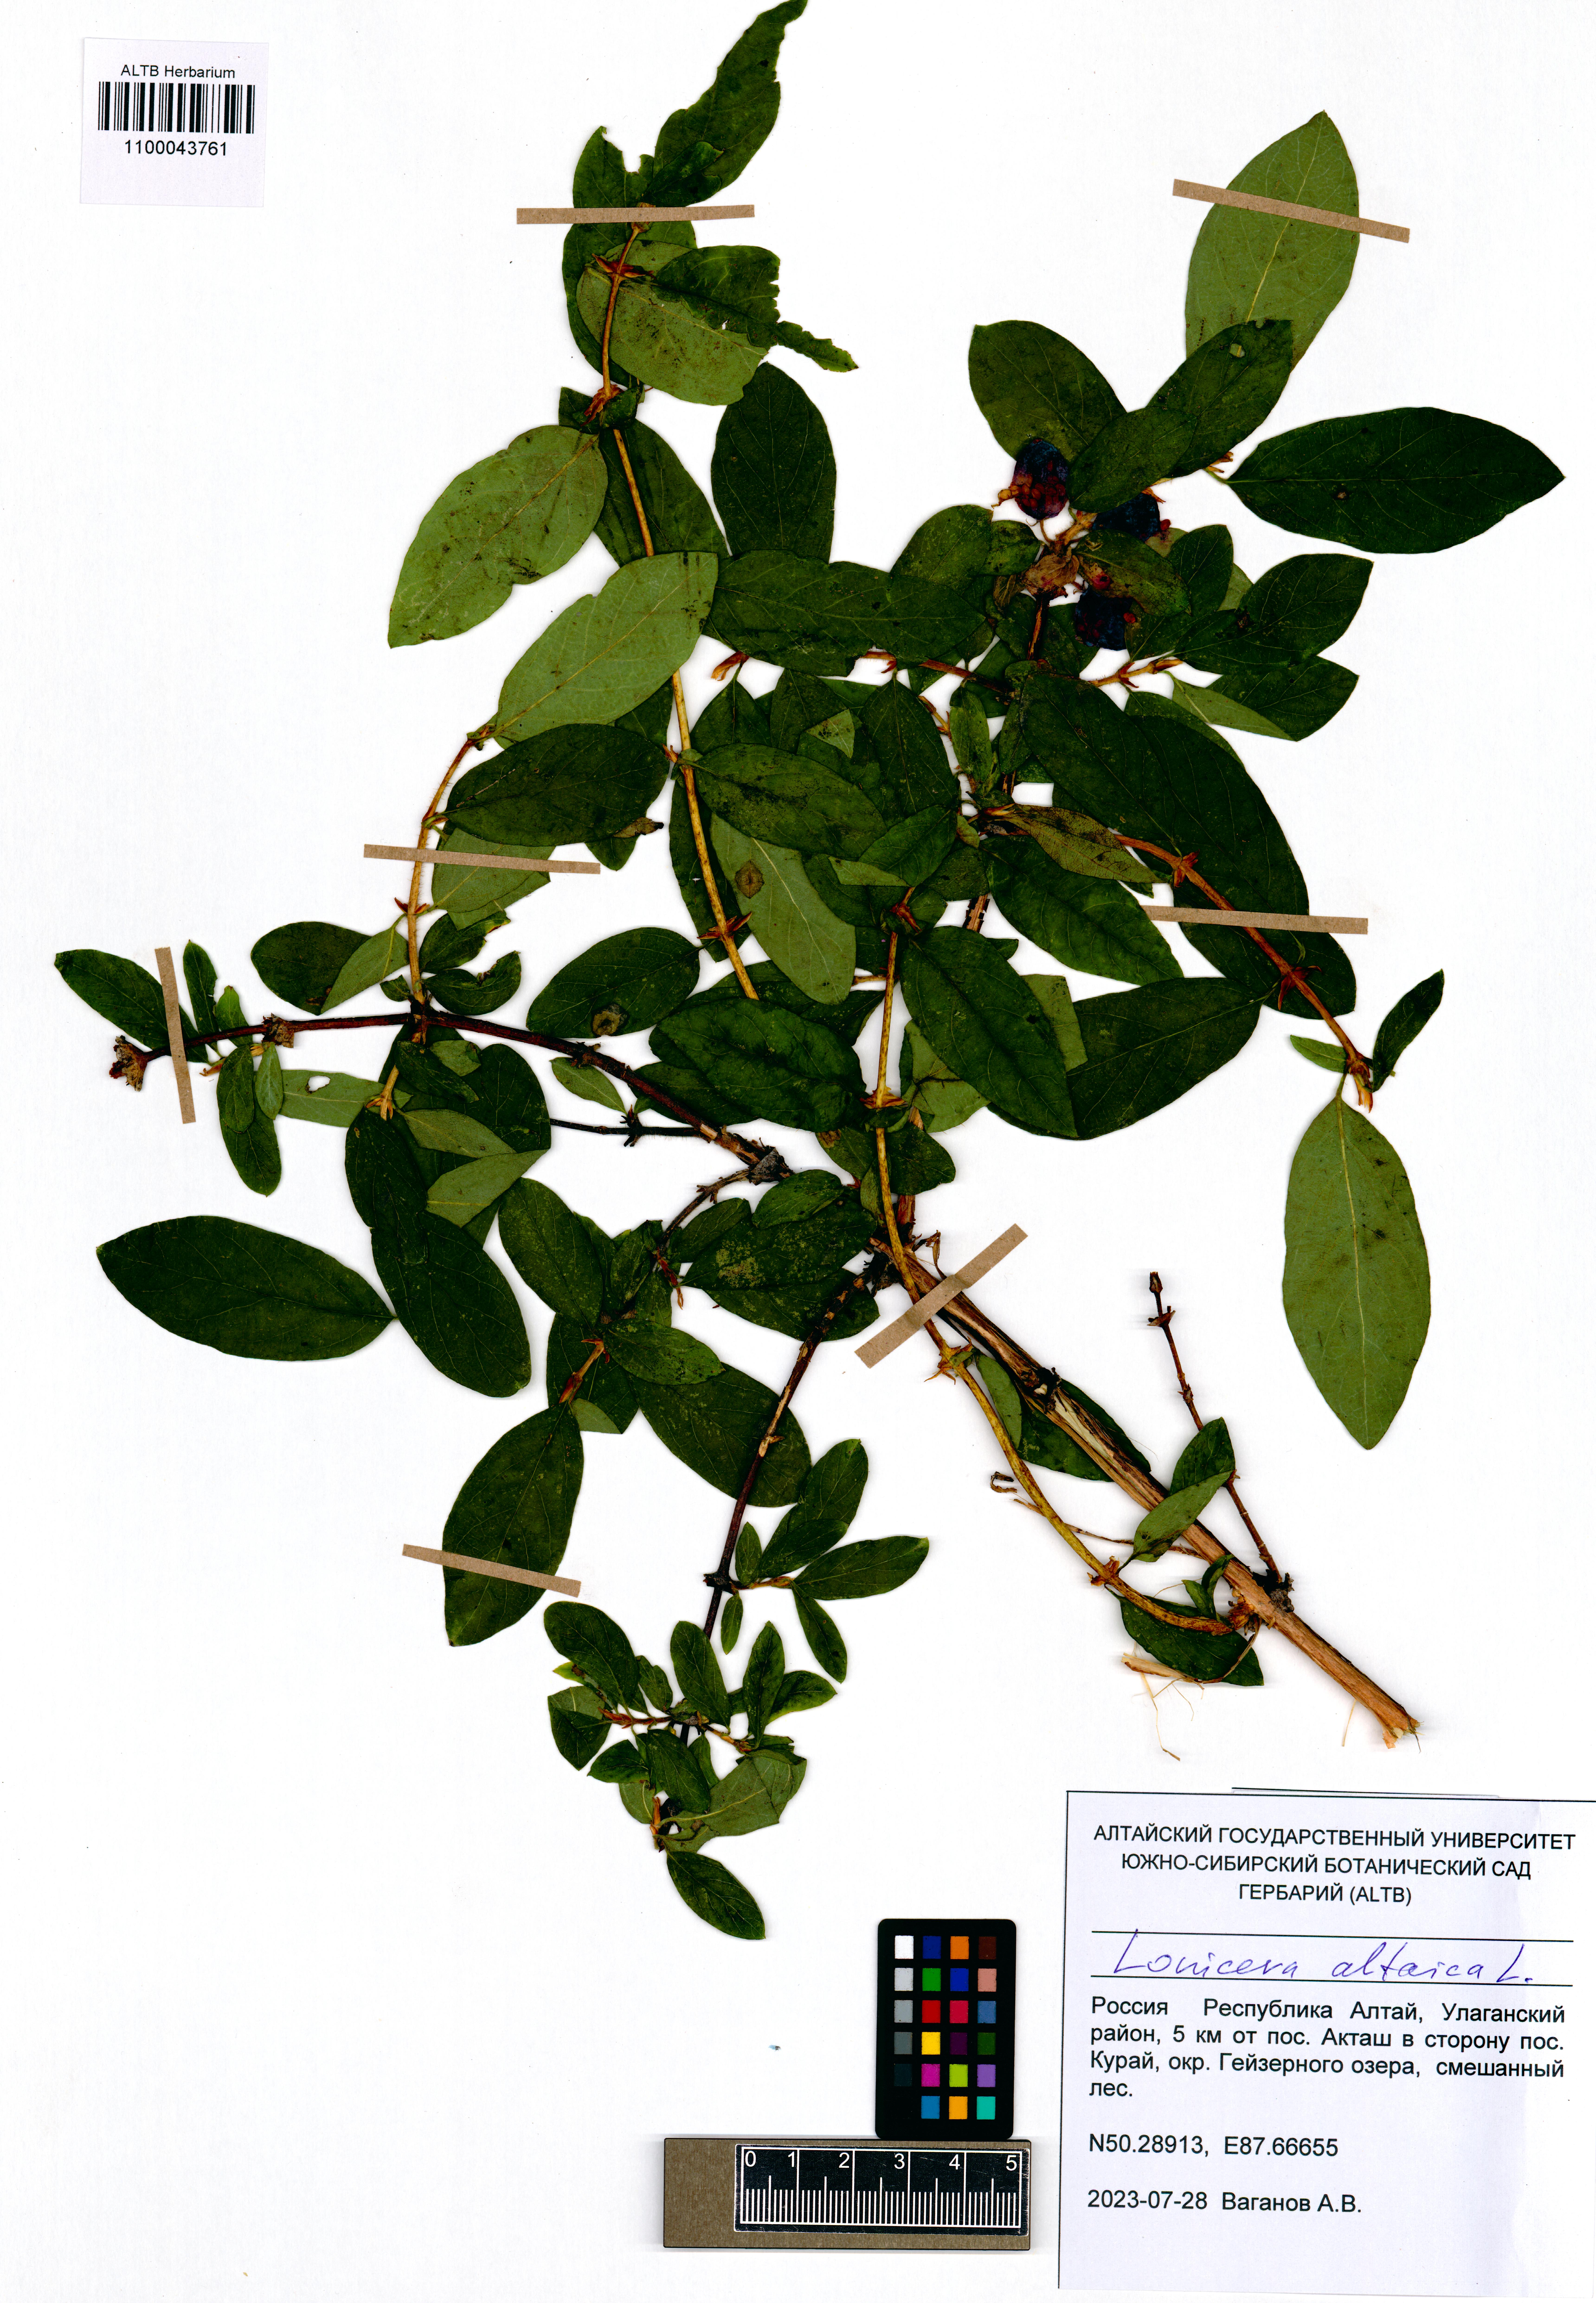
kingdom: Plantae
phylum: Tracheophyta
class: Magnoliopsida
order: Dipsacales
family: Caprifoliaceae
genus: Lonicera
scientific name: Lonicera caerulea
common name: Blue honeysuckle
